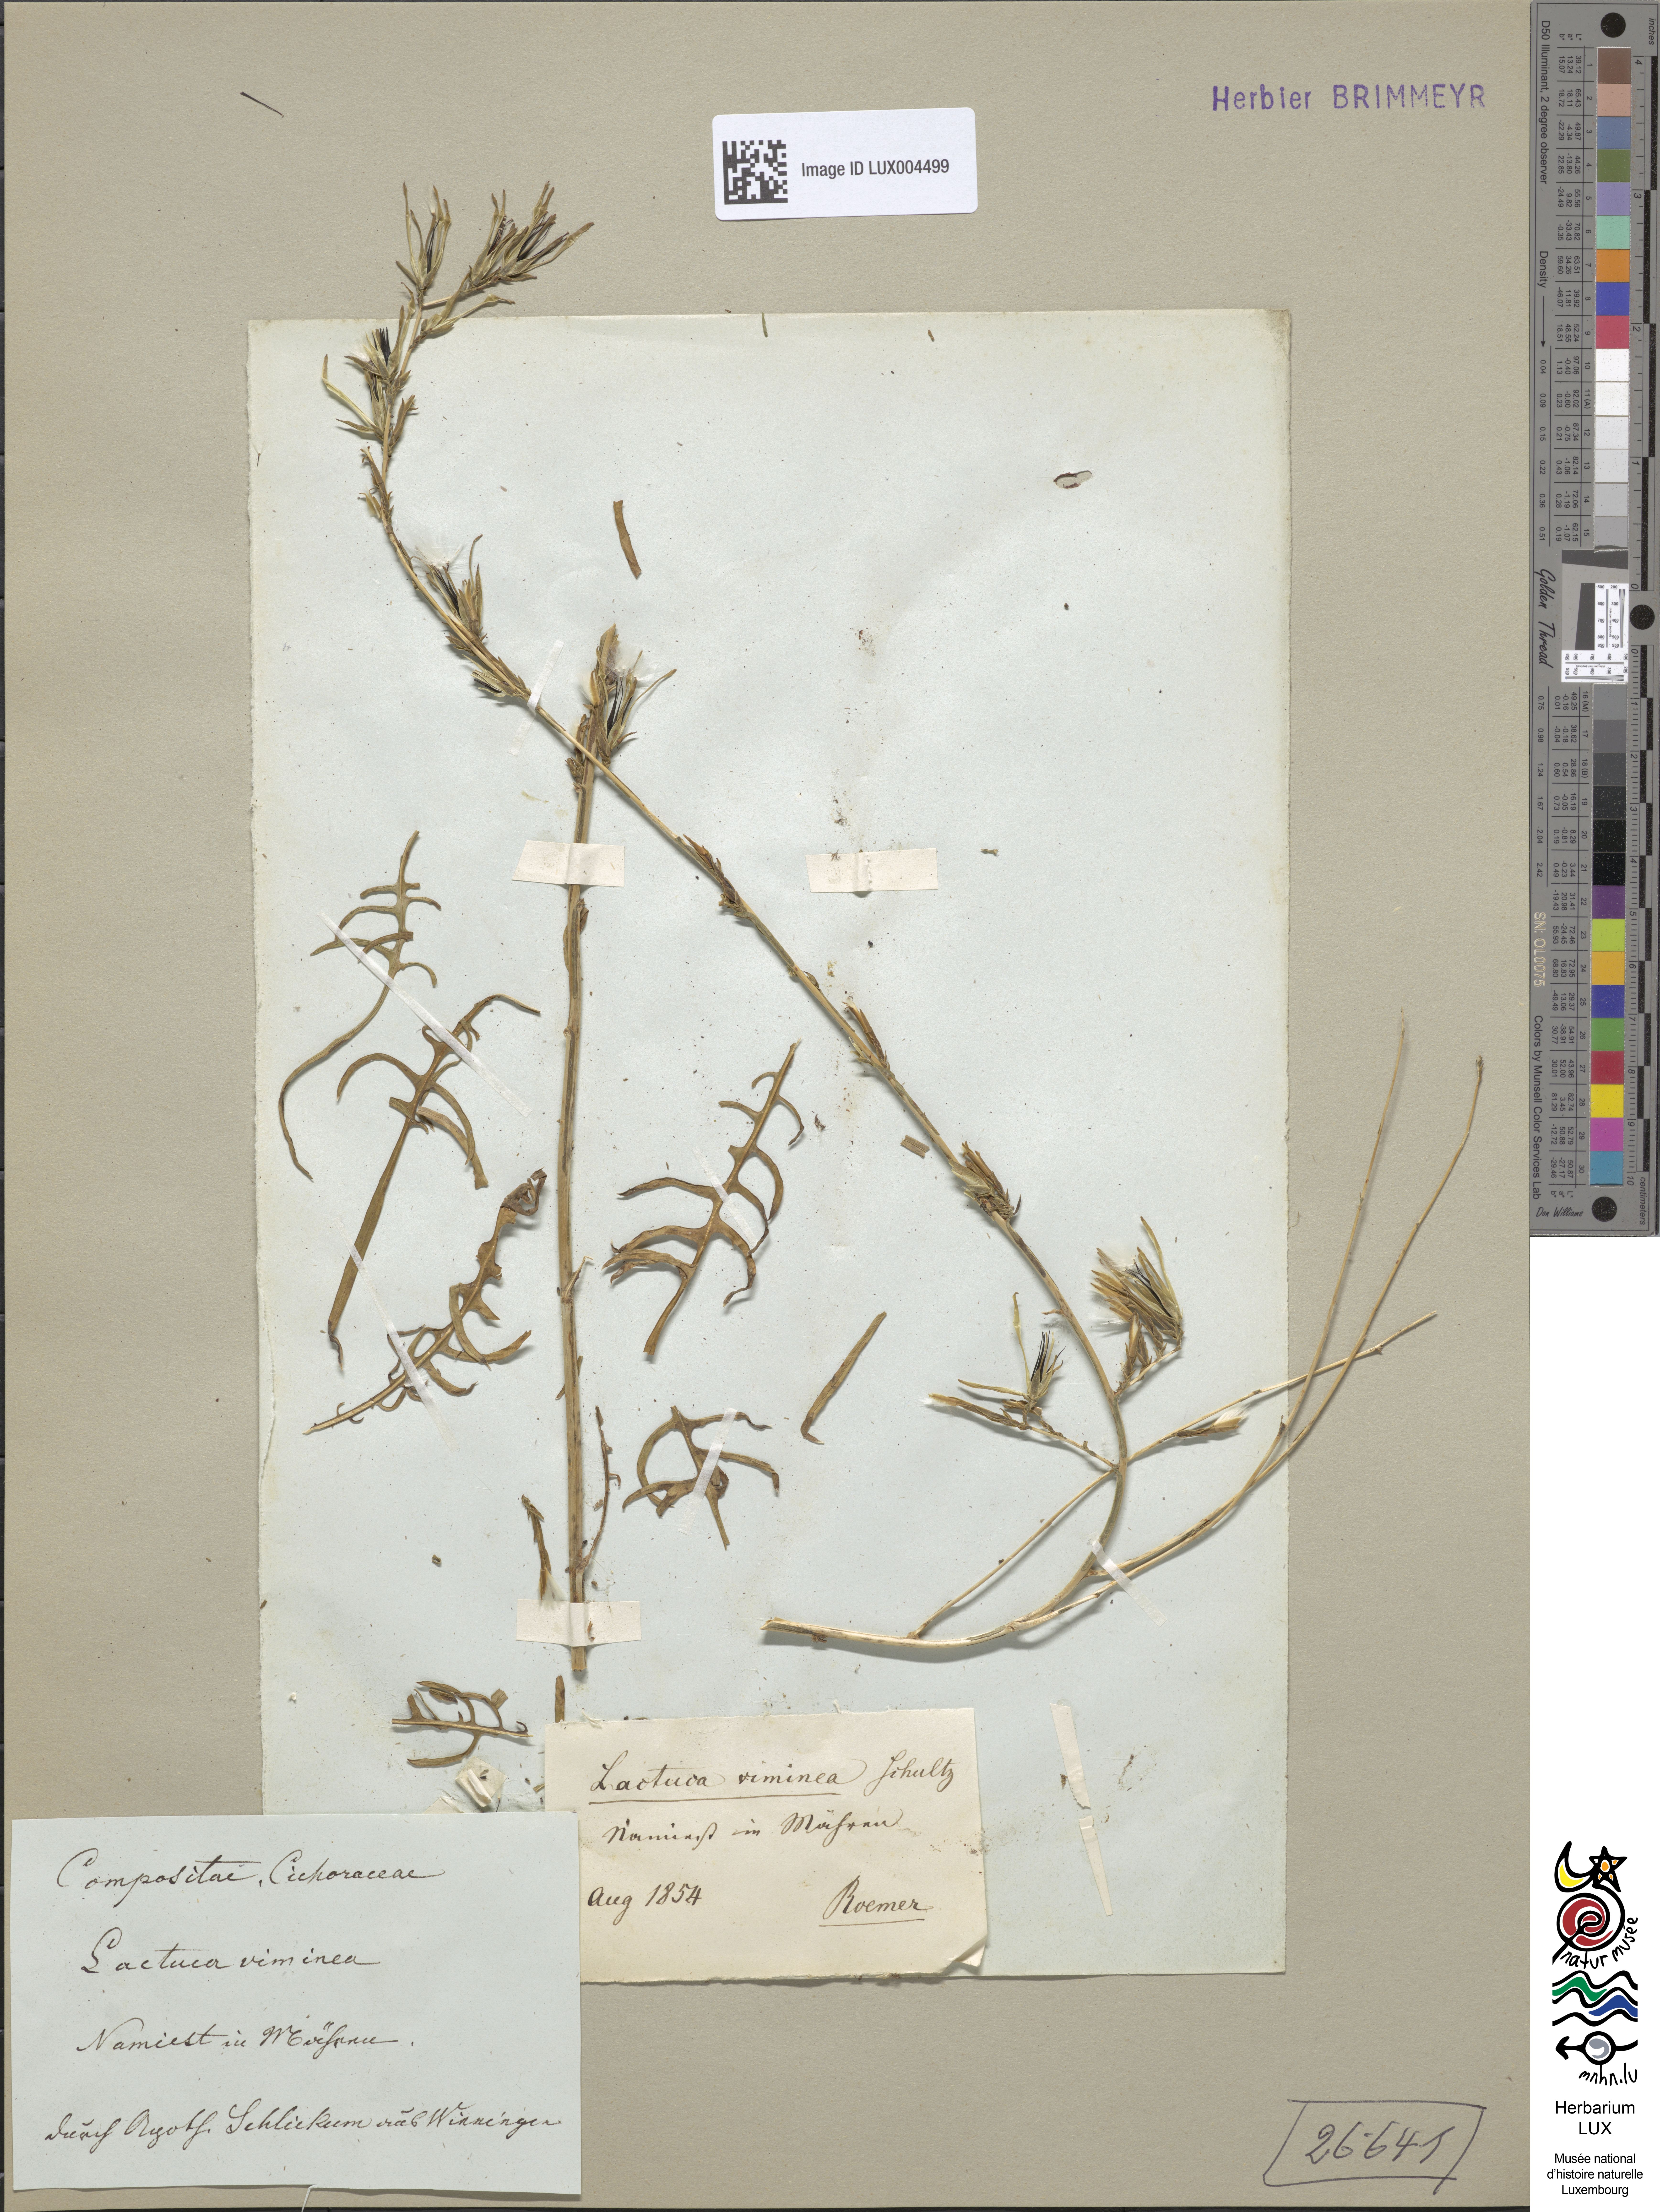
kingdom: Plantae
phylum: Tracheophyta
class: Magnoliopsida
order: Asterales
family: Asteraceae
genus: Lactuca
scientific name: Lactuca viminea
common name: Pliant lettuce
